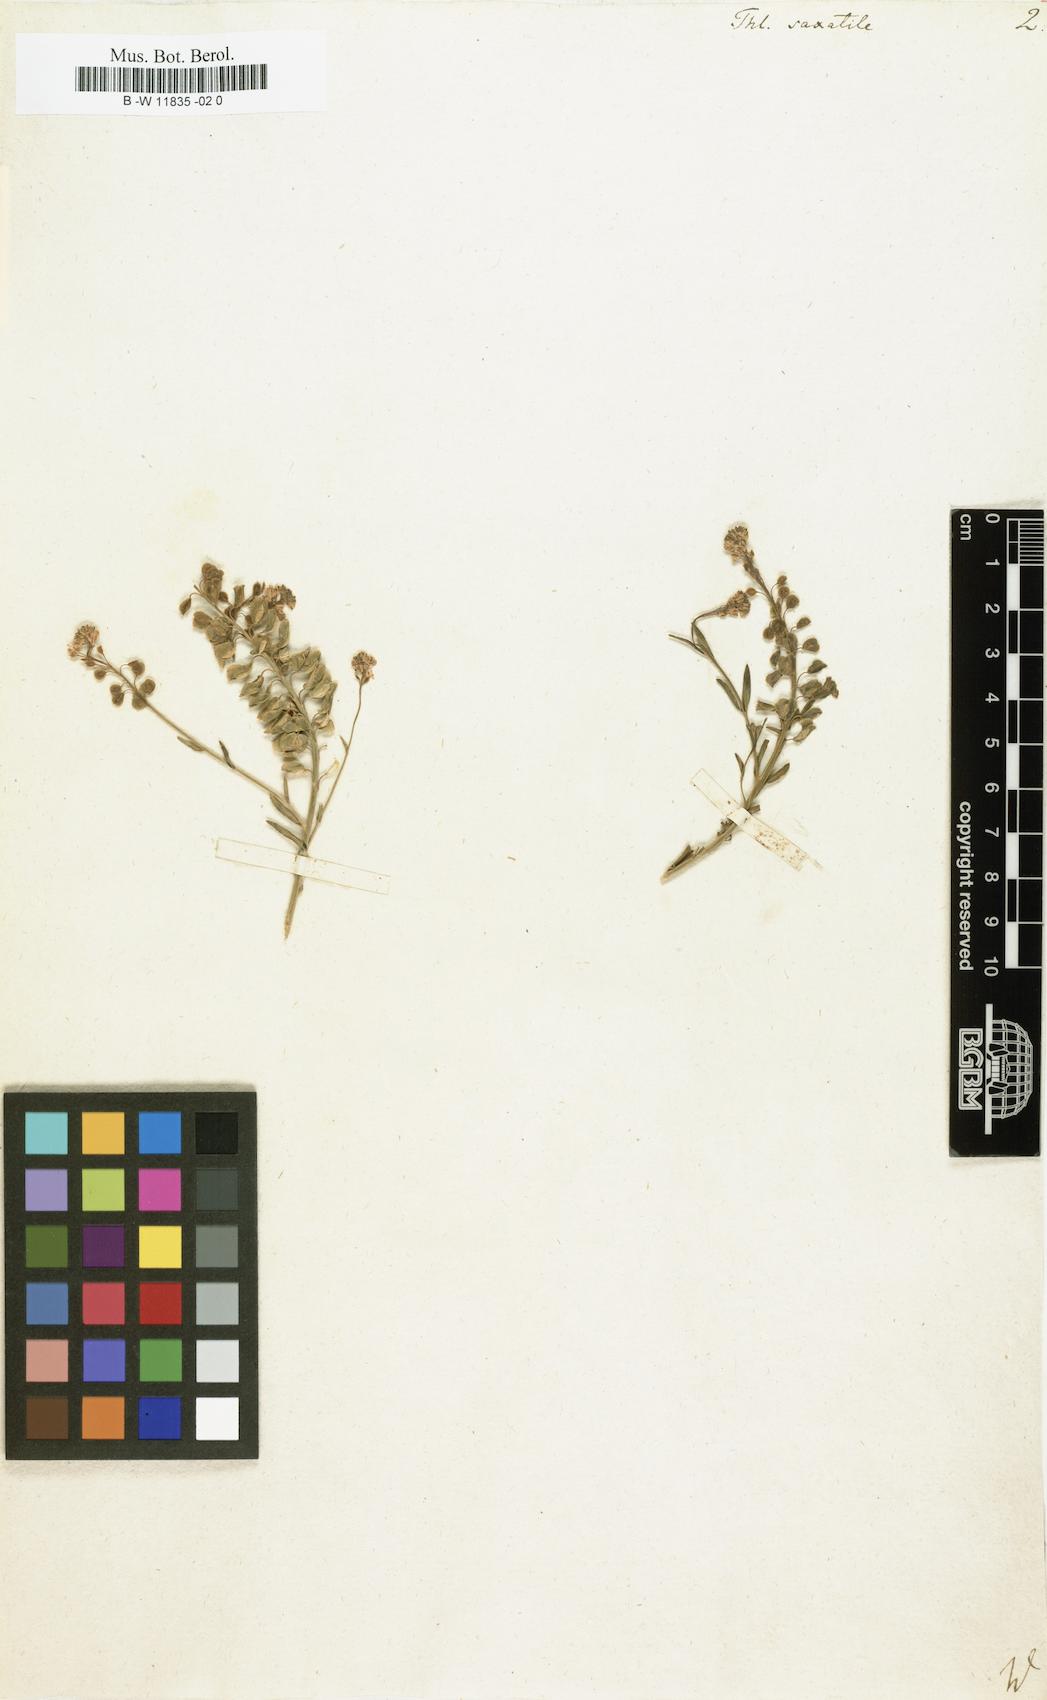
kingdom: Plantae
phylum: Tracheophyta
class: Magnoliopsida
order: Brassicales
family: Brassicaceae
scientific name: Brassicaceae
